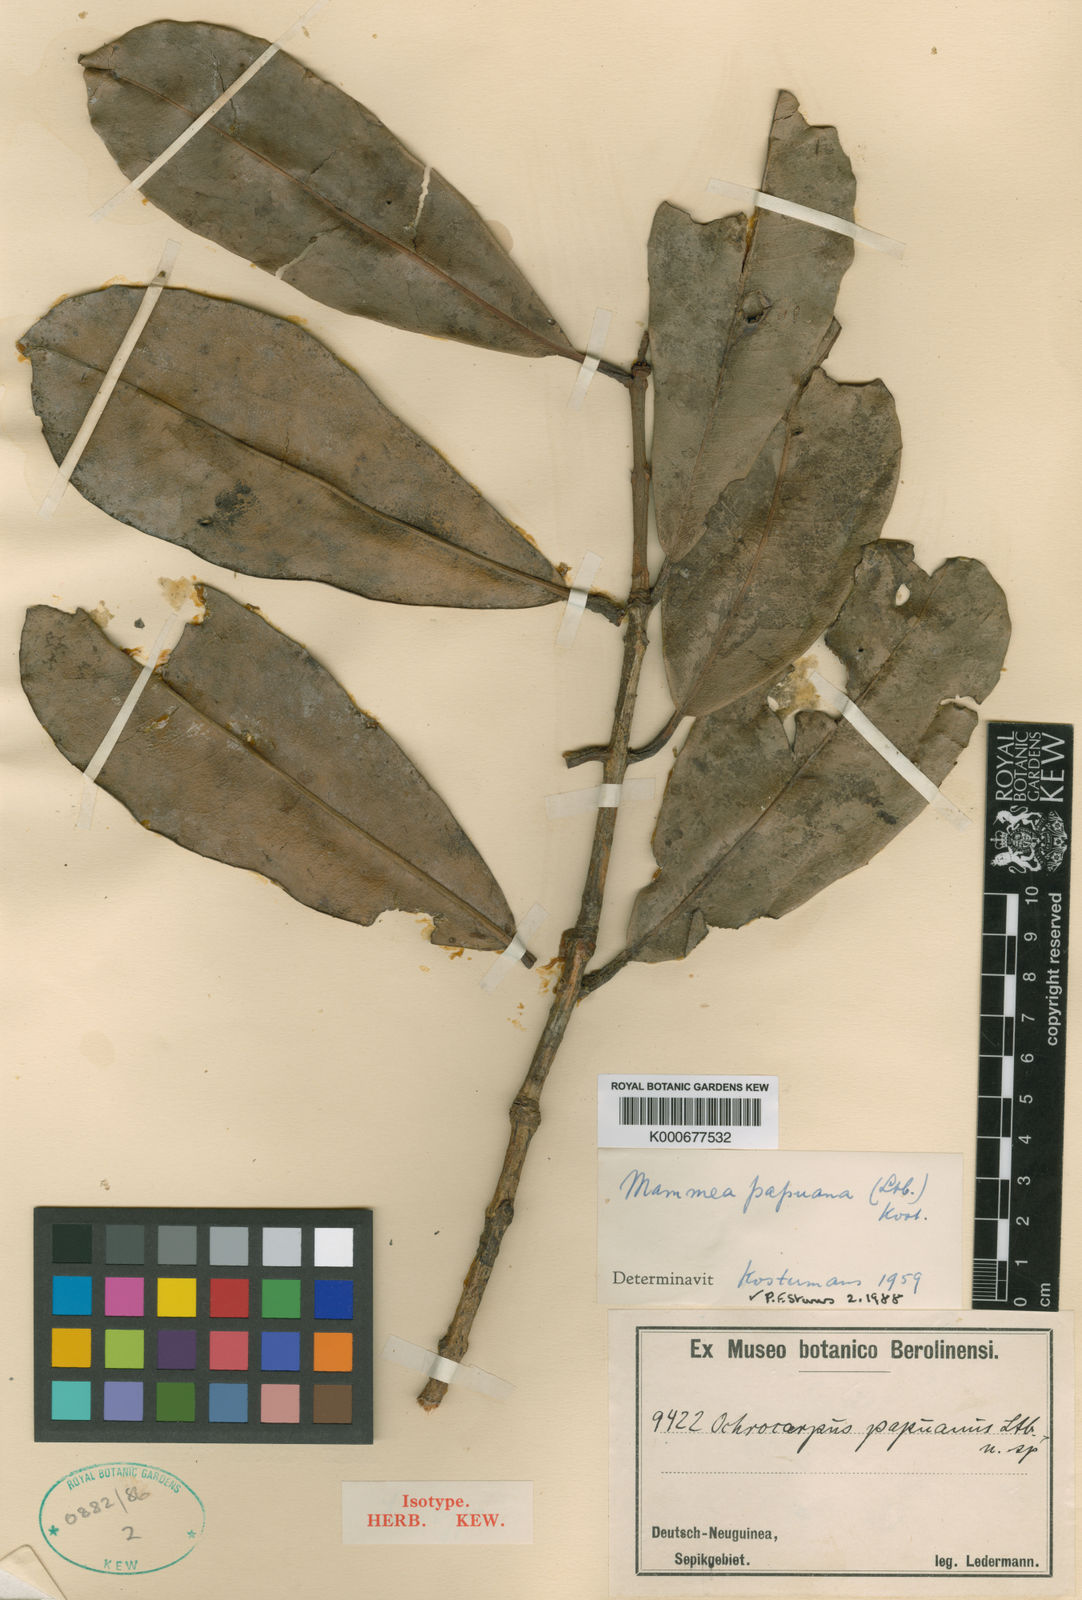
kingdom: Plantae
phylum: Tracheophyta
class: Magnoliopsida
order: Malpighiales
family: Calophyllaceae
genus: Mammea
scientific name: Mammea papuana
